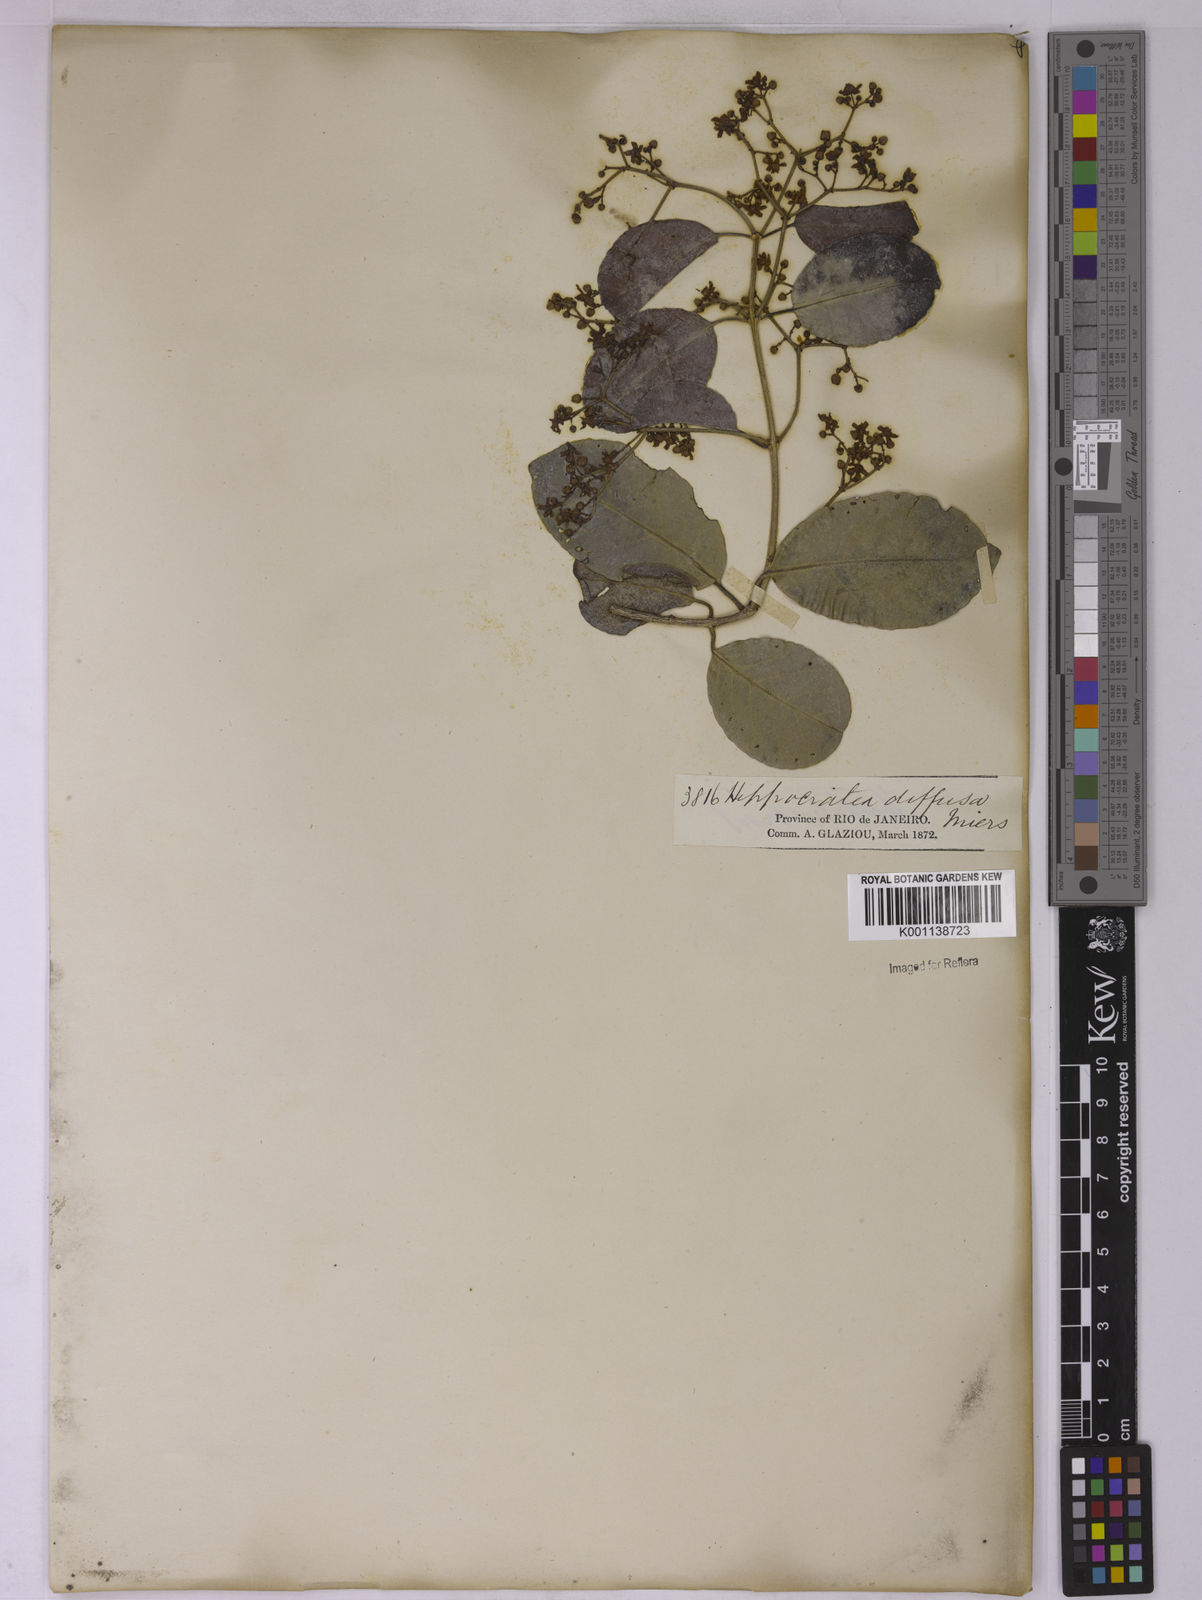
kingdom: Plantae
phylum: Tracheophyta
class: Magnoliopsida
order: Celastrales
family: Celastraceae
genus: Hippocratea
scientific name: Hippocratea volubilis
